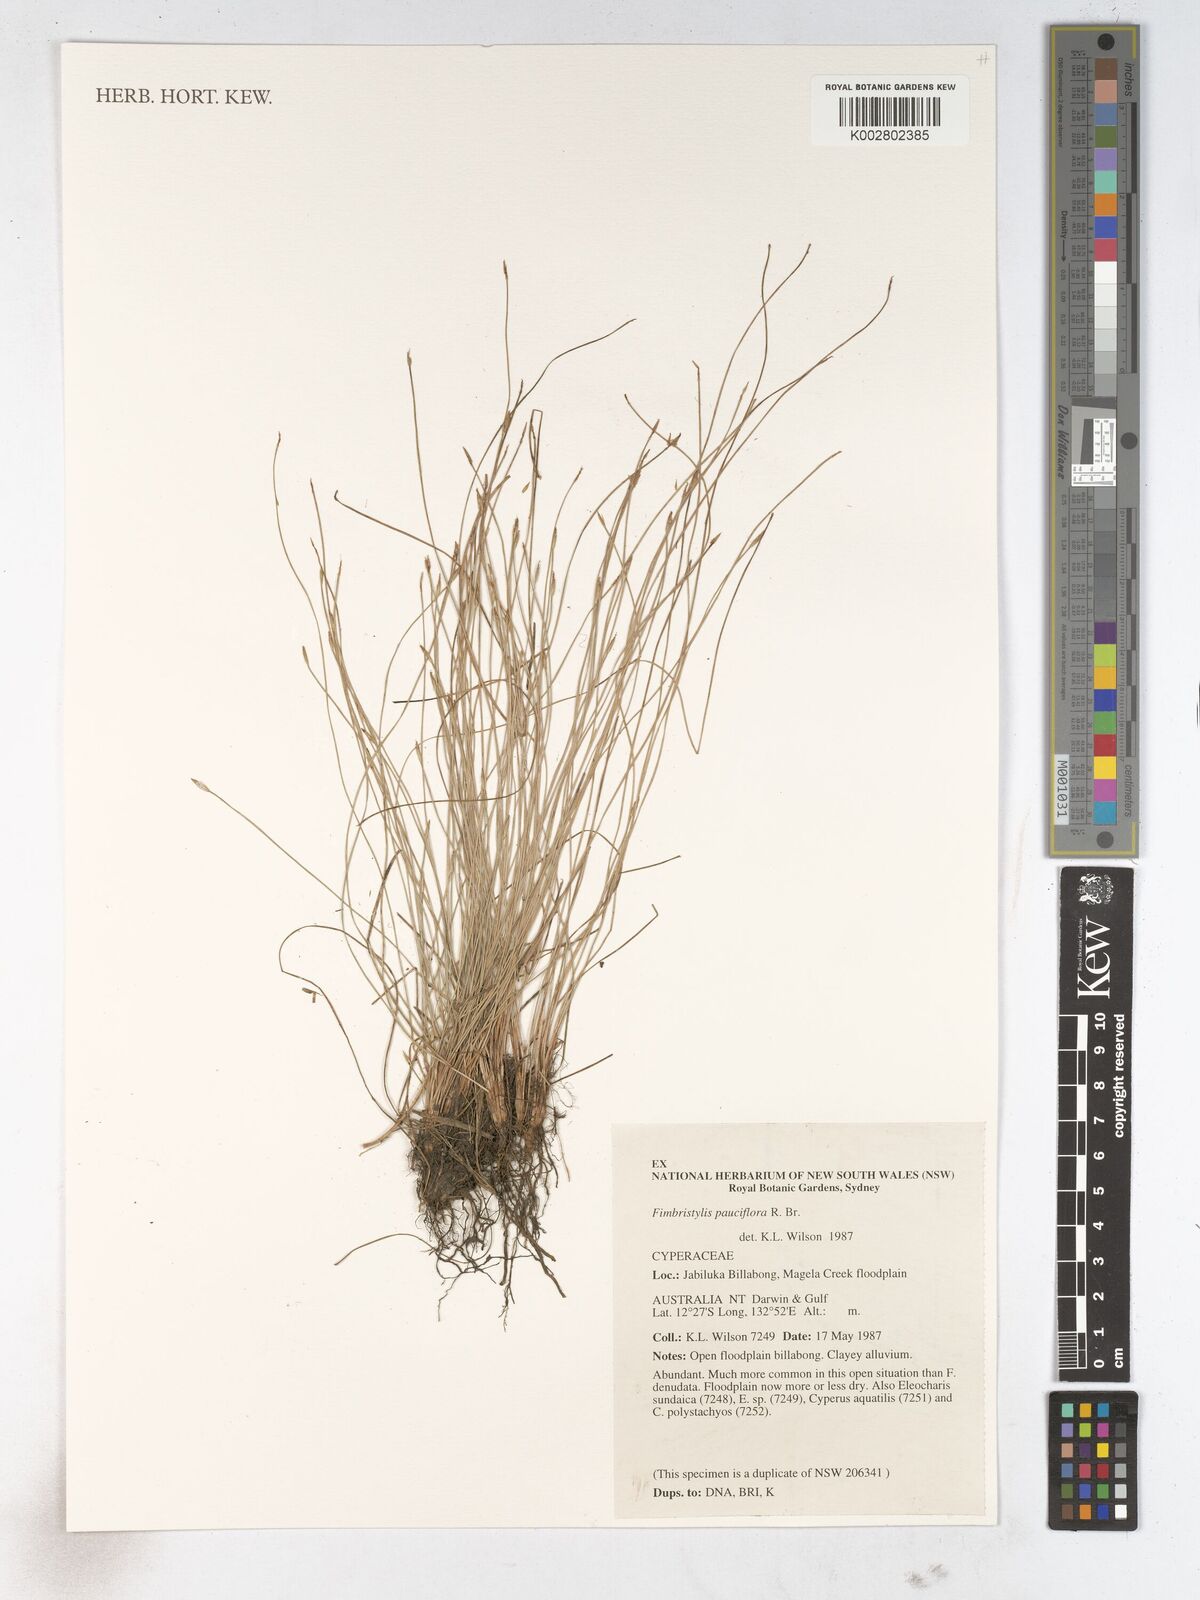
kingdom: Plantae
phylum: Tracheophyta
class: Liliopsida
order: Poales
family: Cyperaceae
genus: Fimbristylis
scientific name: Fimbristylis pauciflora
